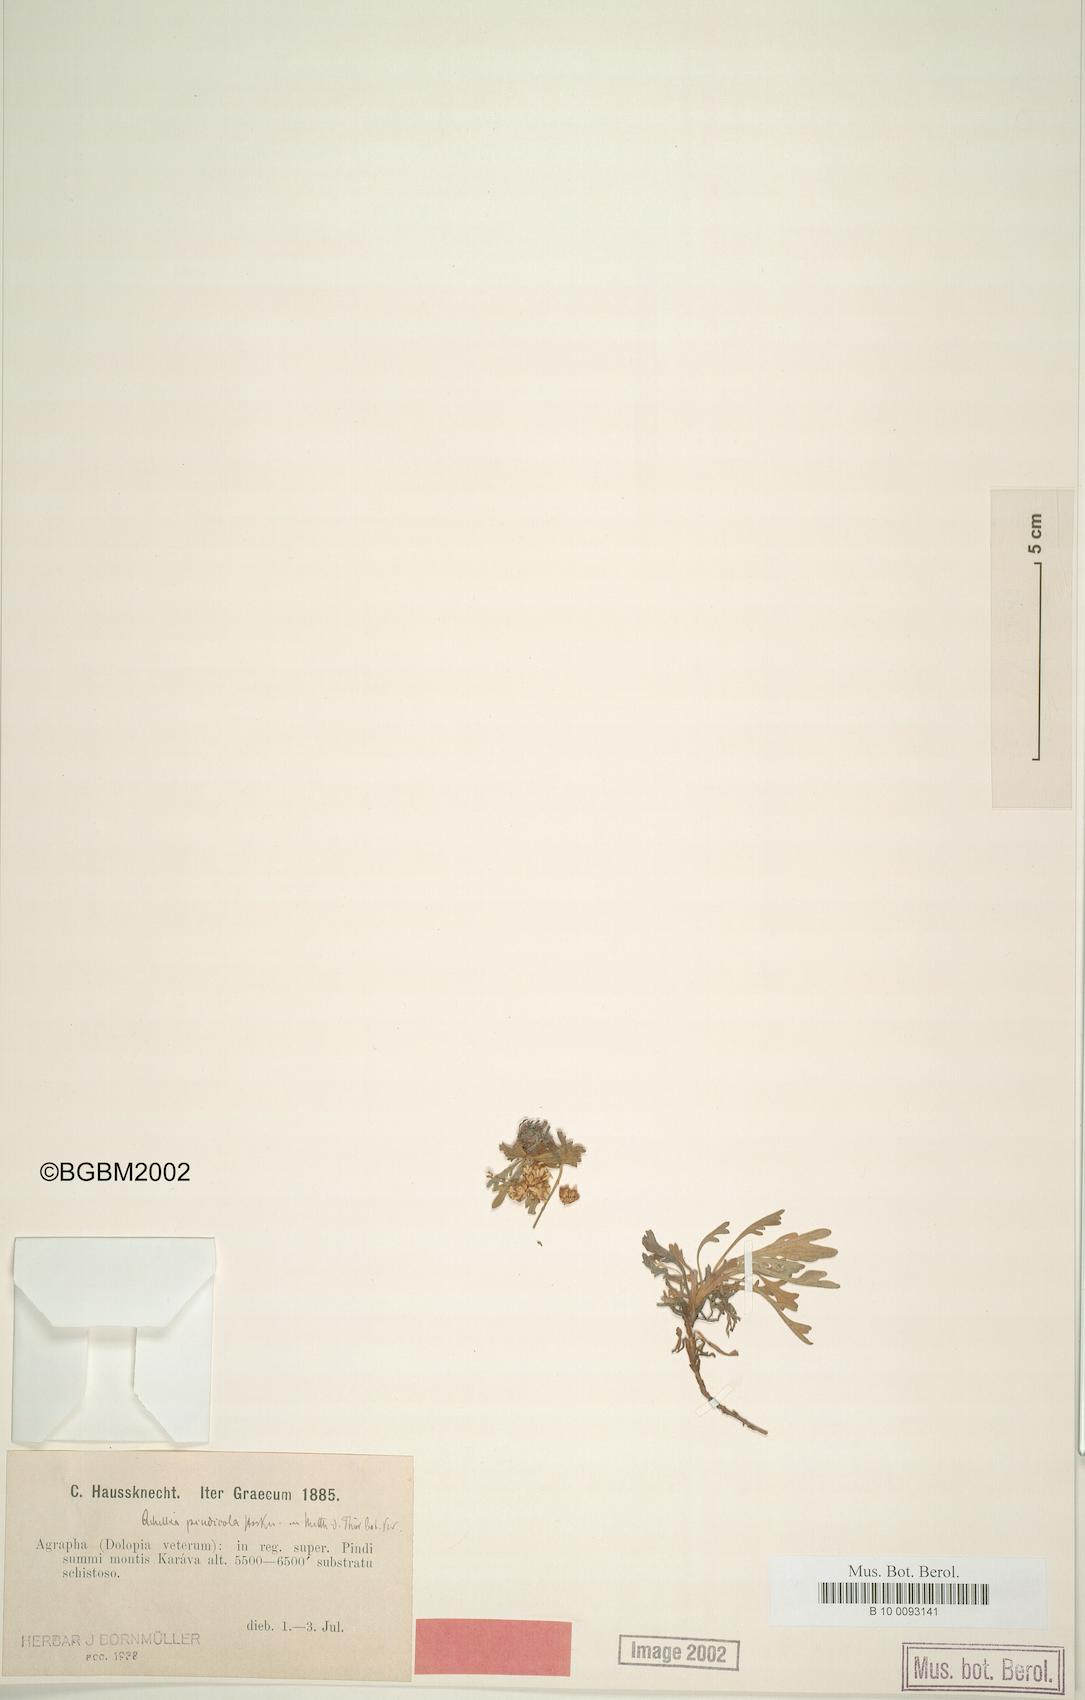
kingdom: Plantae
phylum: Tracheophyta
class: Magnoliopsida
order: Asterales
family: Asteraceae
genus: Achillea
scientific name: Achillea pindicola
